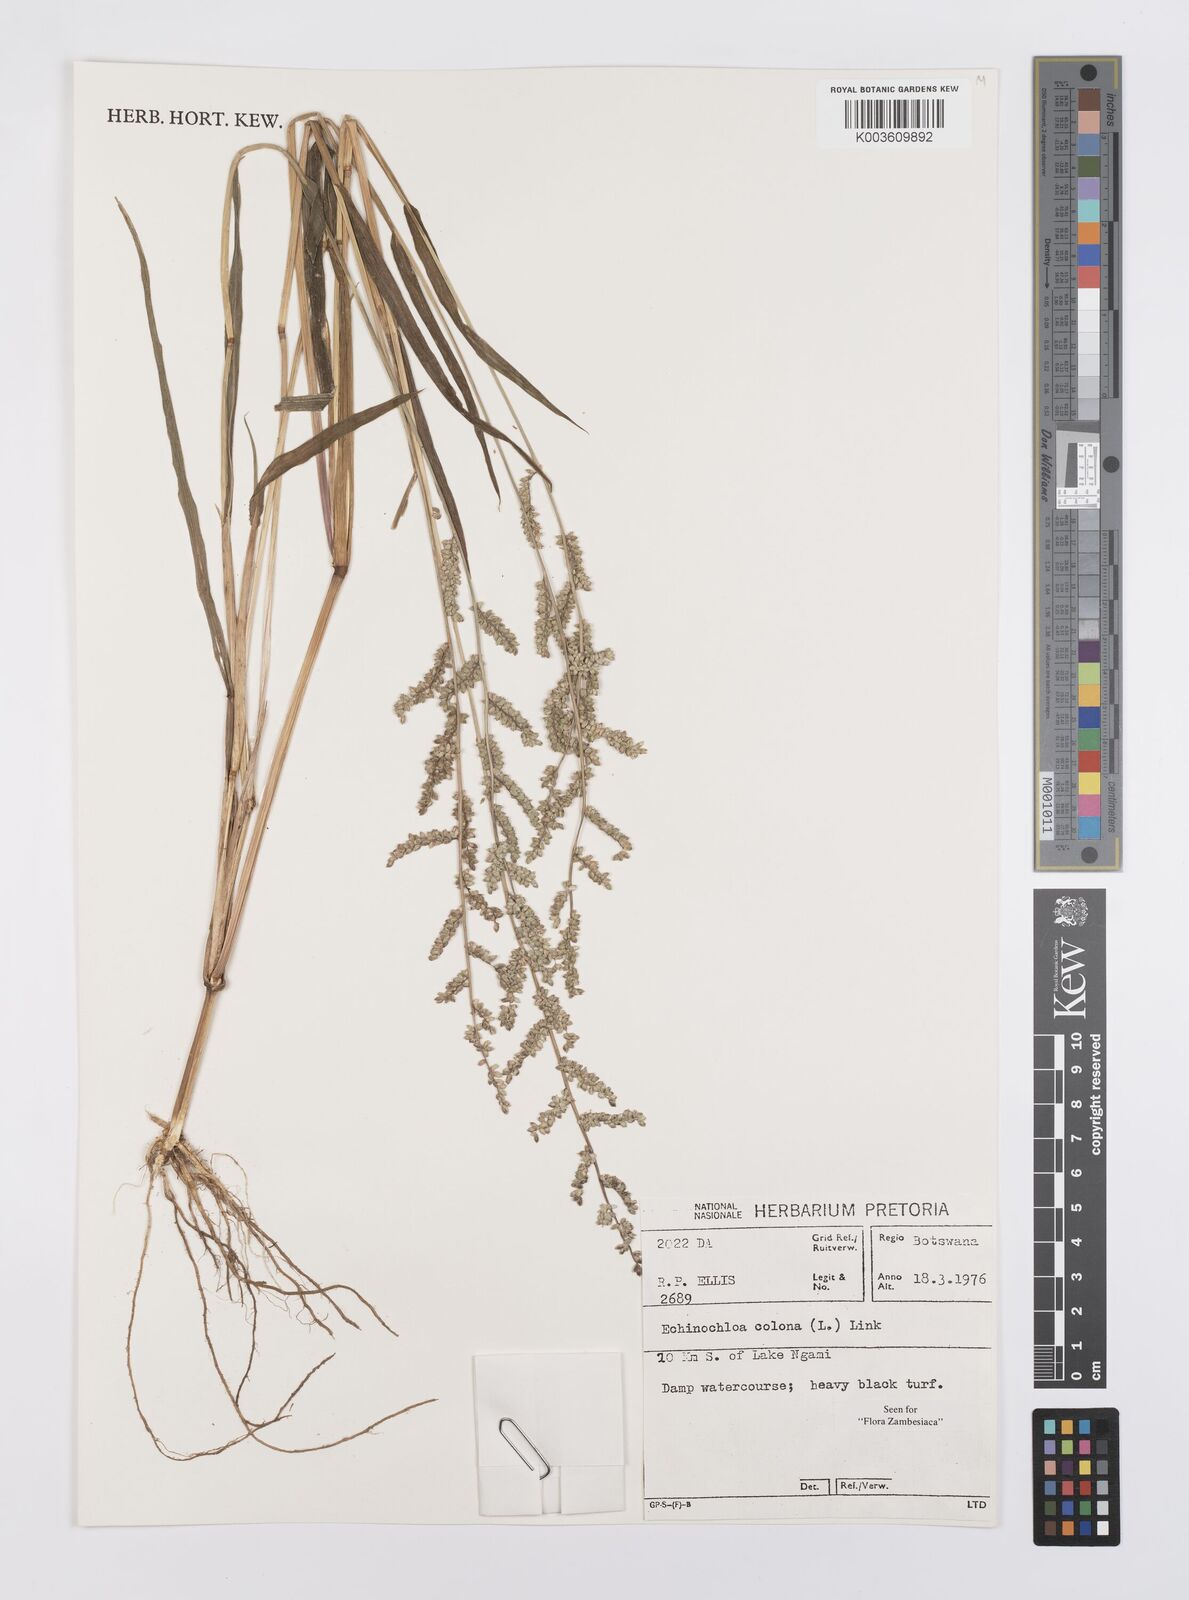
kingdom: Plantae
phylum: Tracheophyta
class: Liliopsida
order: Poales
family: Poaceae
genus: Echinochloa
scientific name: Echinochloa colonum
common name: Jungle rice
